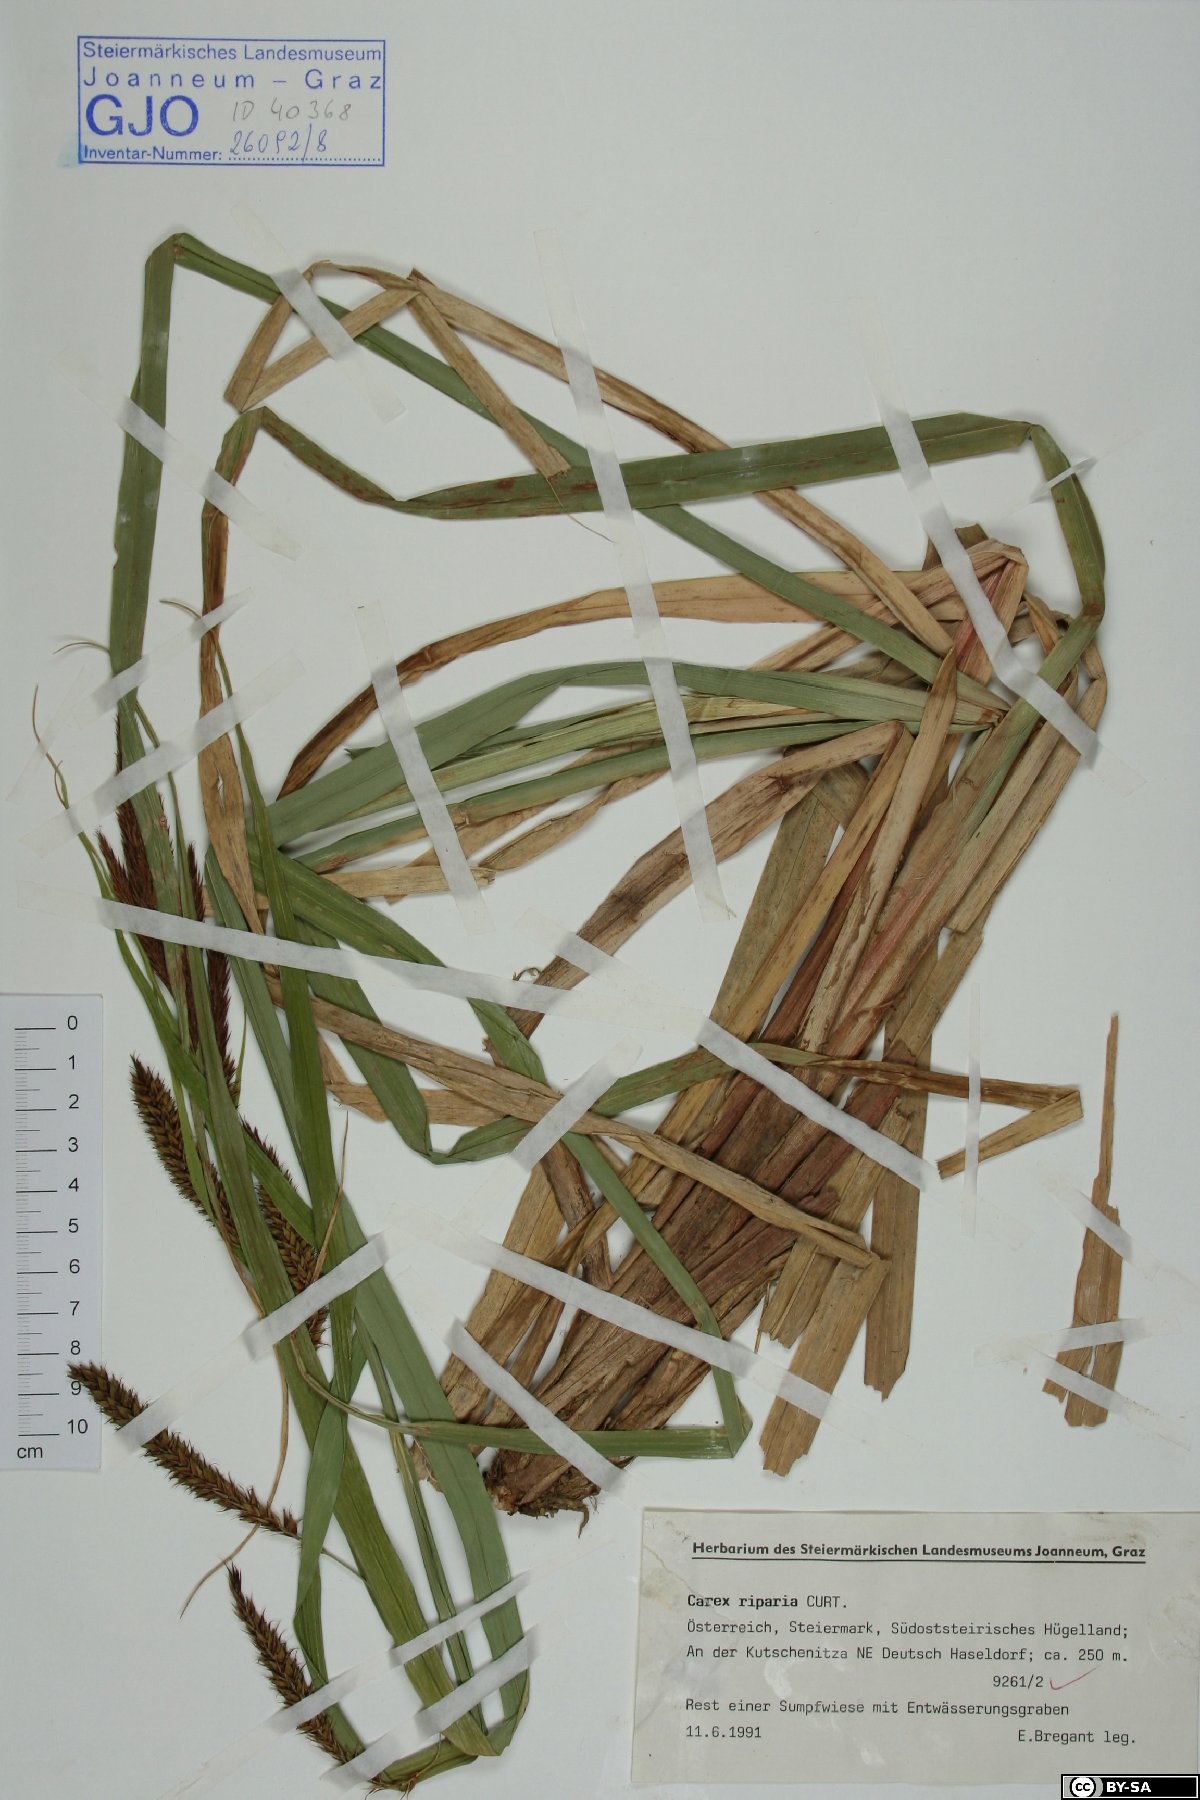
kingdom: Plantae
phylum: Tracheophyta
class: Liliopsida
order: Poales
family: Cyperaceae
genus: Carex
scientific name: Carex riparia
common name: Greater pond-sedge
